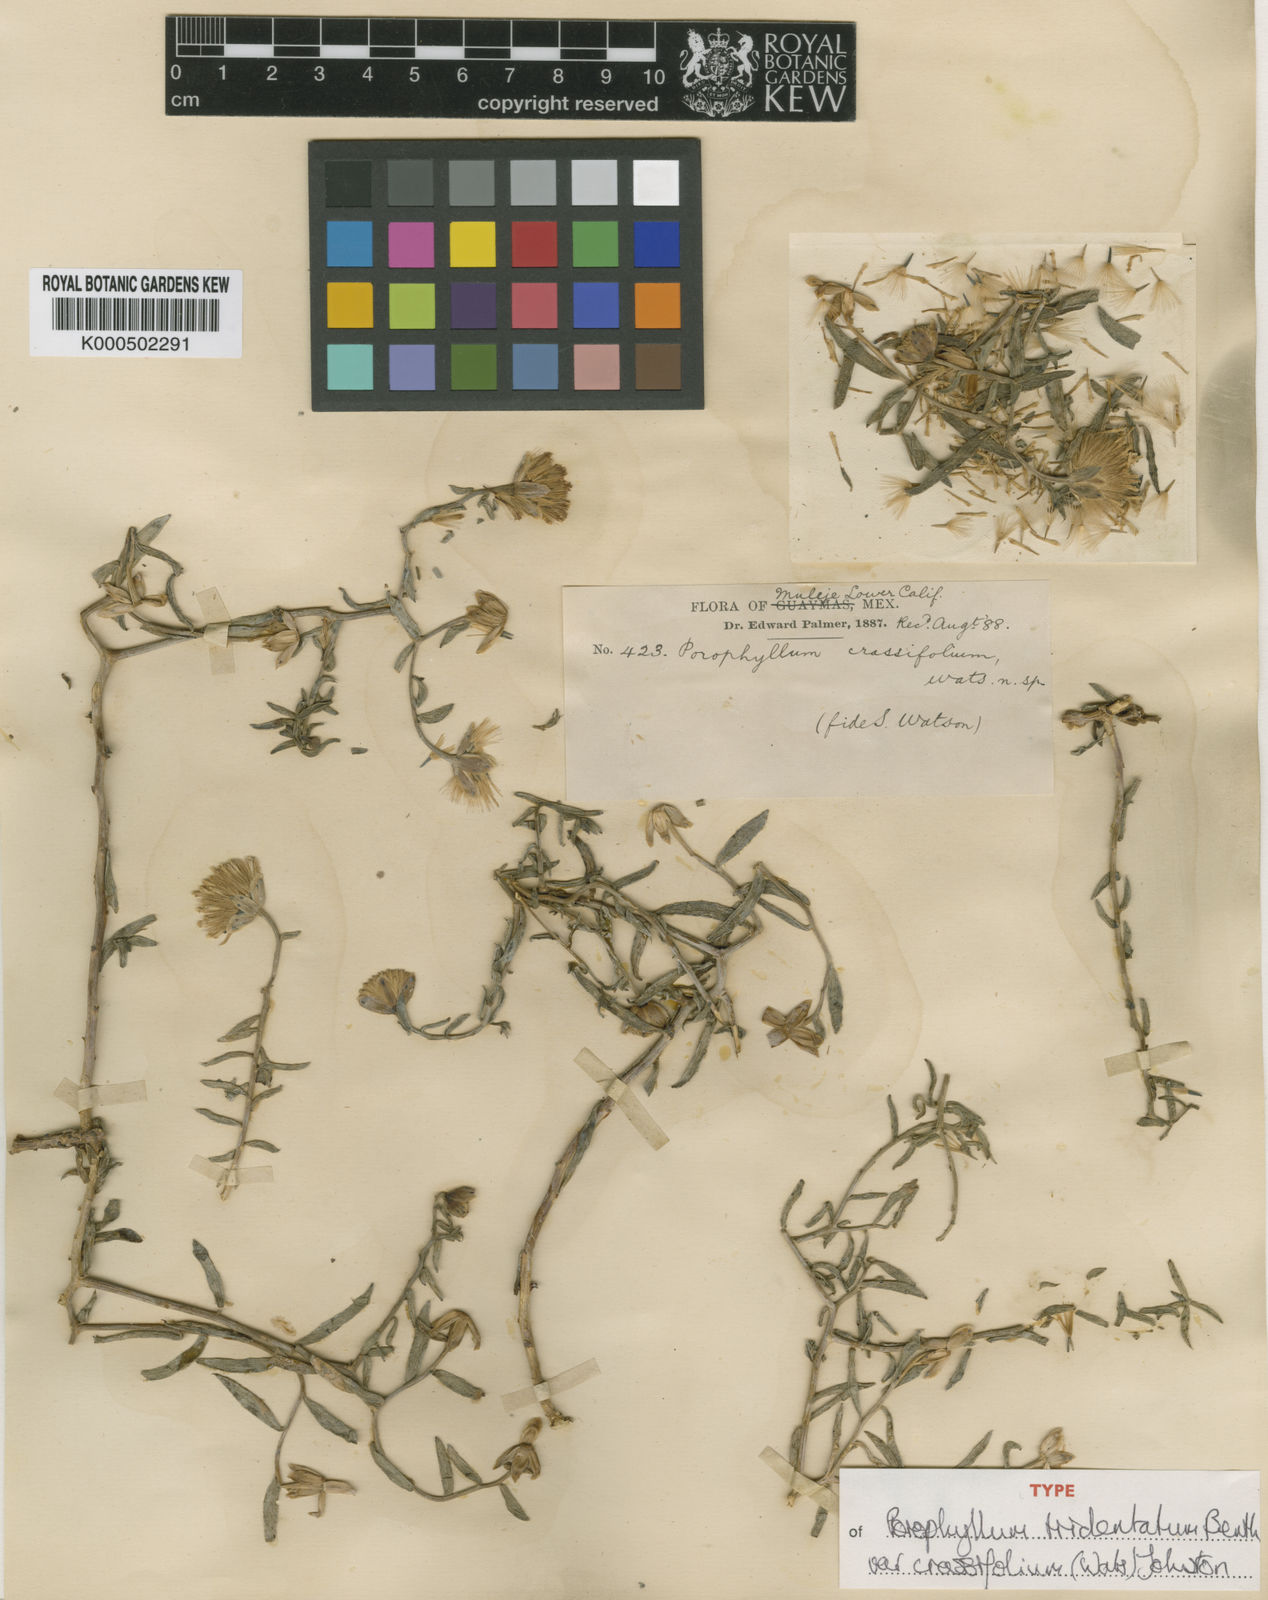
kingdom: Plantae
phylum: Tracheophyta
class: Magnoliopsida
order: Asterales
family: Asteraceae
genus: Bajacalia
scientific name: Bajacalia crassifolia
